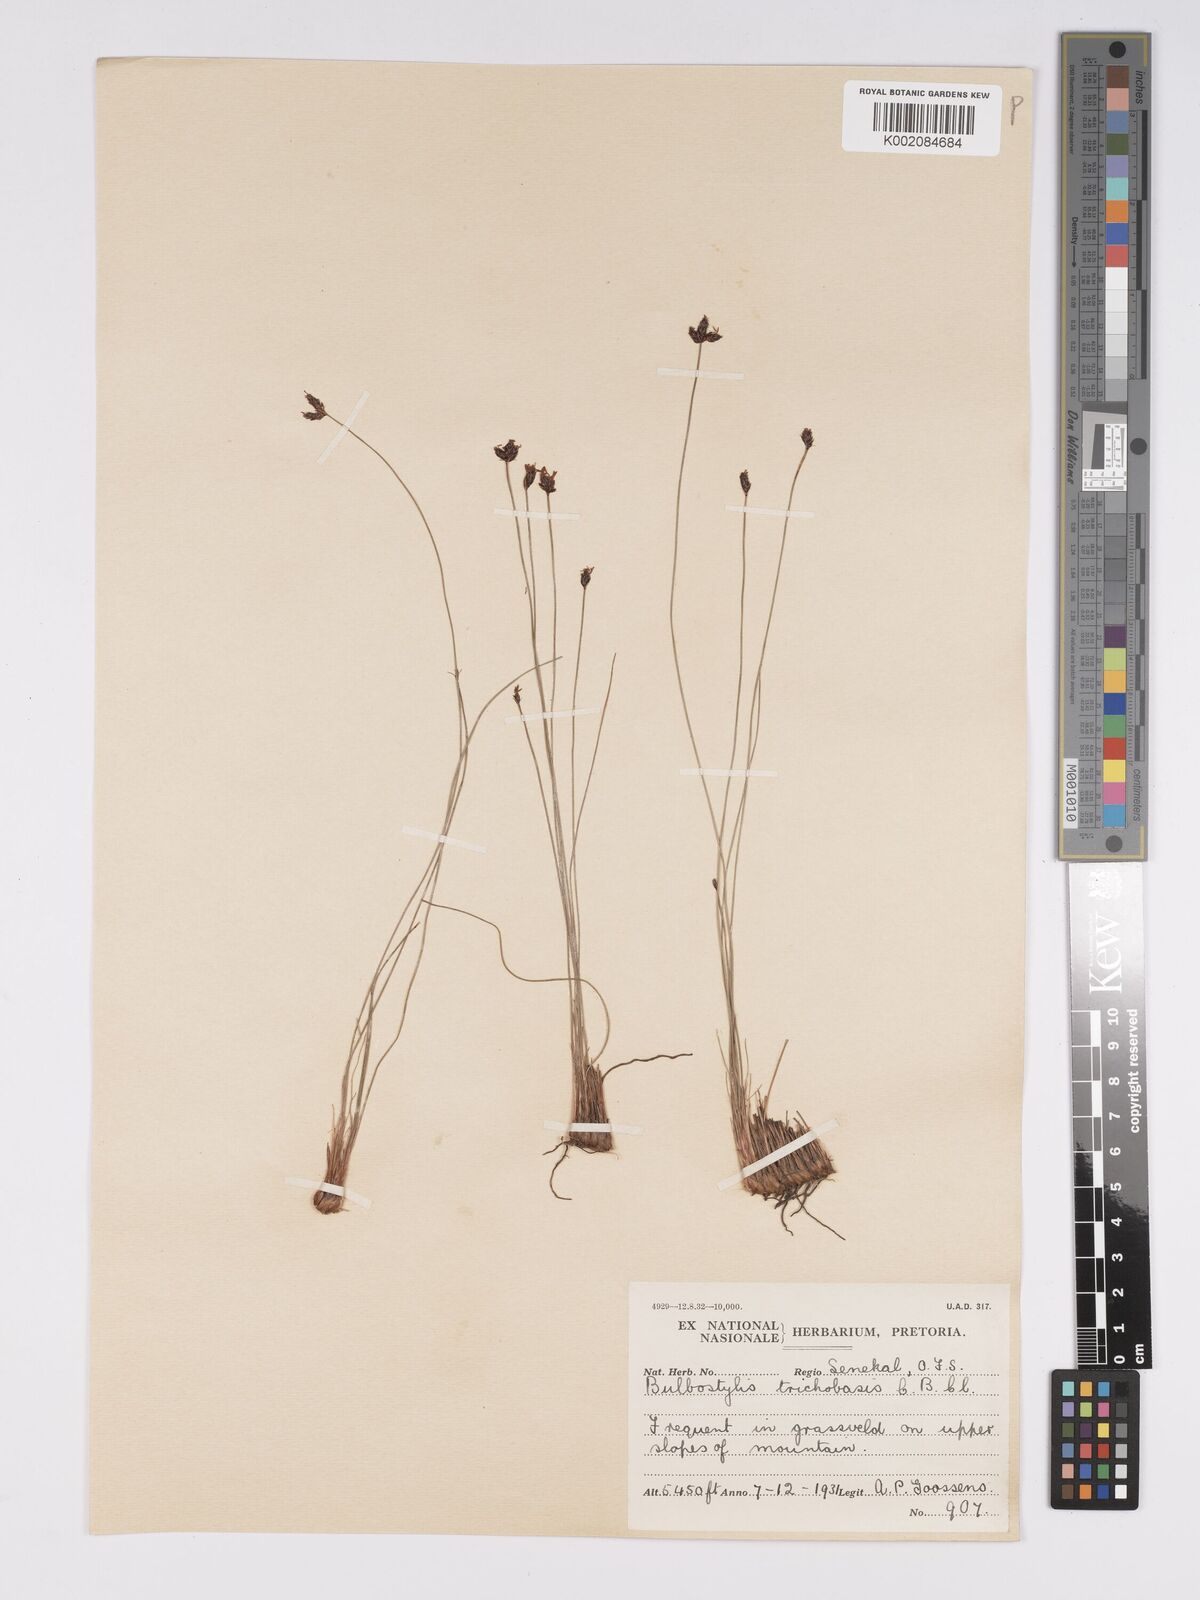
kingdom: Plantae
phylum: Tracheophyta
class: Liliopsida
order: Poales
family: Cyperaceae
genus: Bulbostylis
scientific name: Bulbostylis trichobasis
